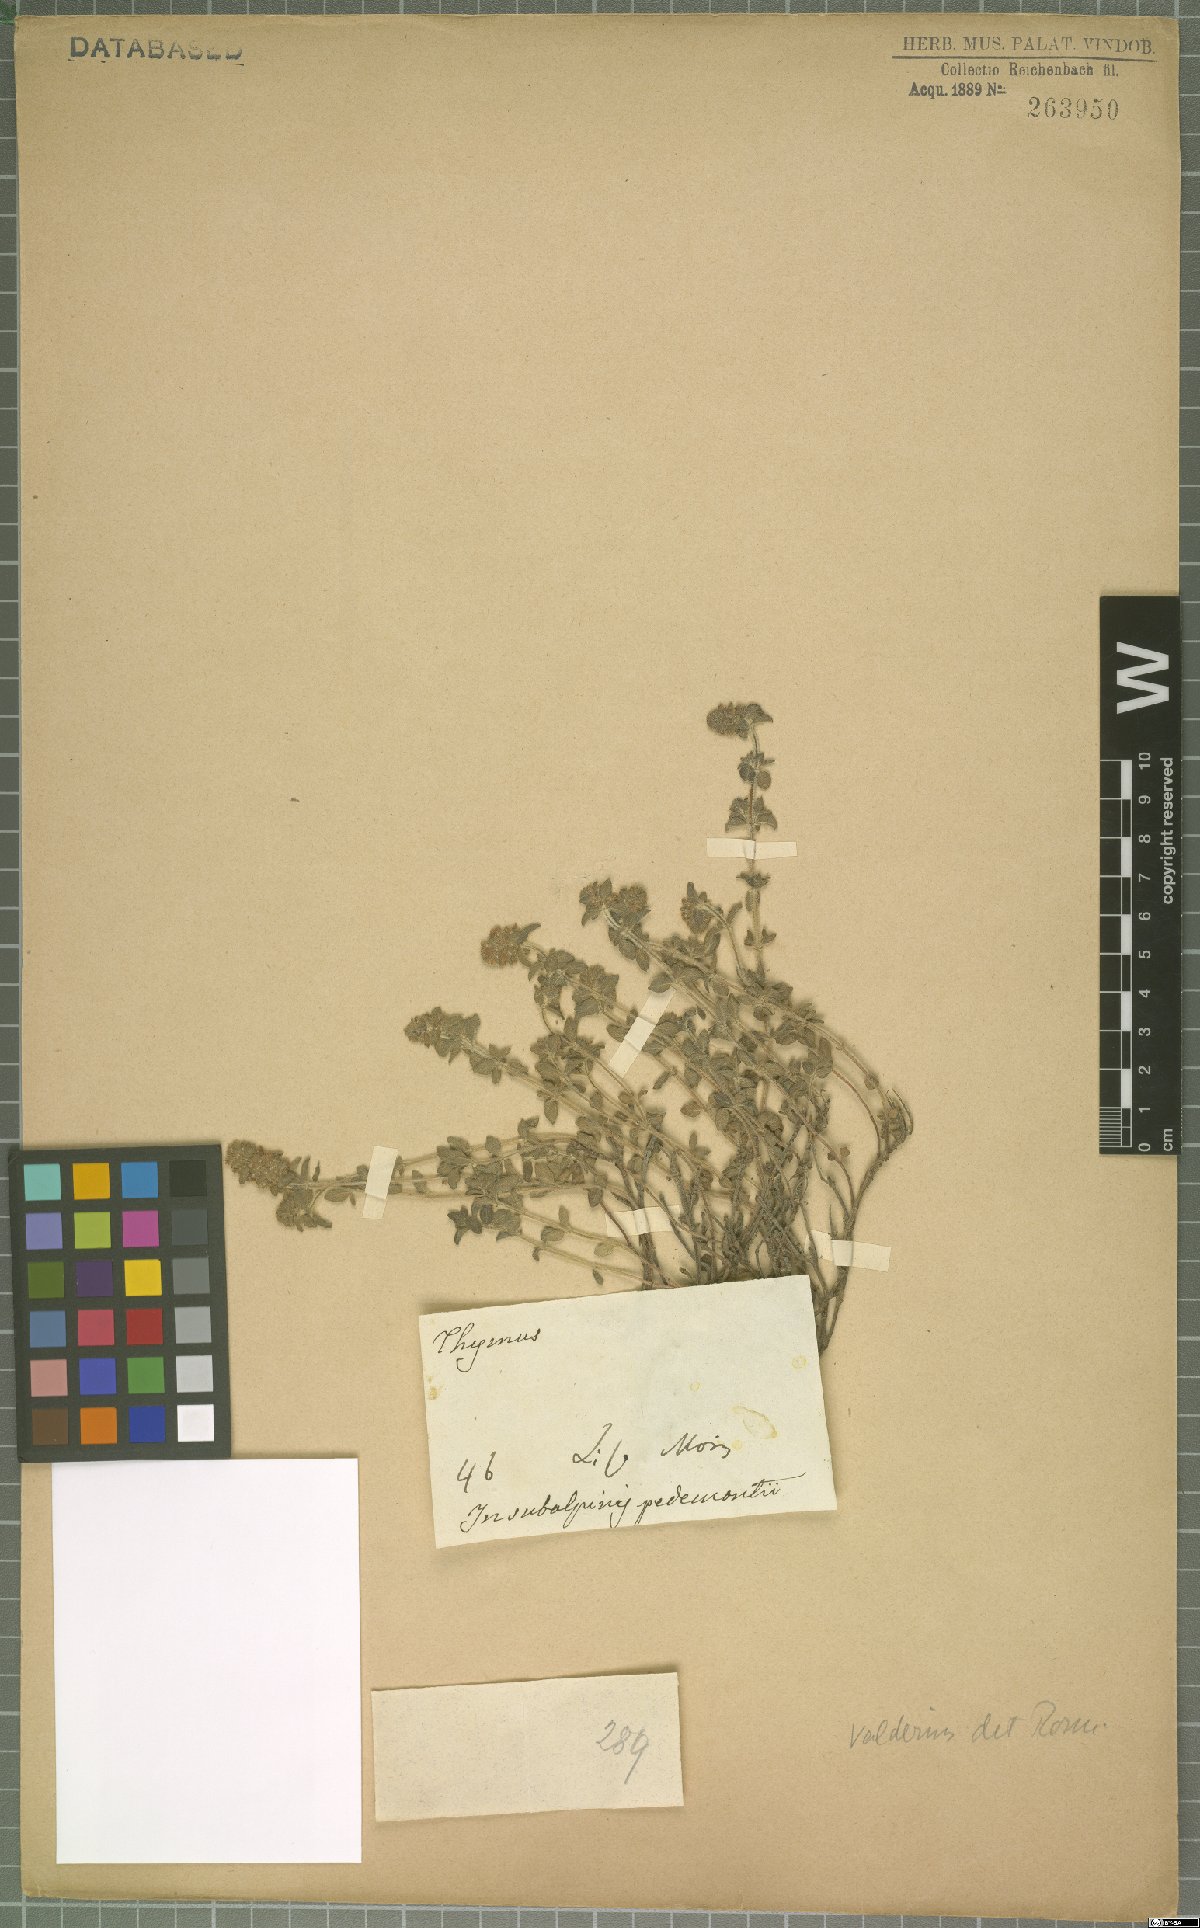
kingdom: Plantae
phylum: Tracheophyta
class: Magnoliopsida
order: Lamiales
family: Lamiaceae
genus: Thymus
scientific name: Thymus pannonicus
